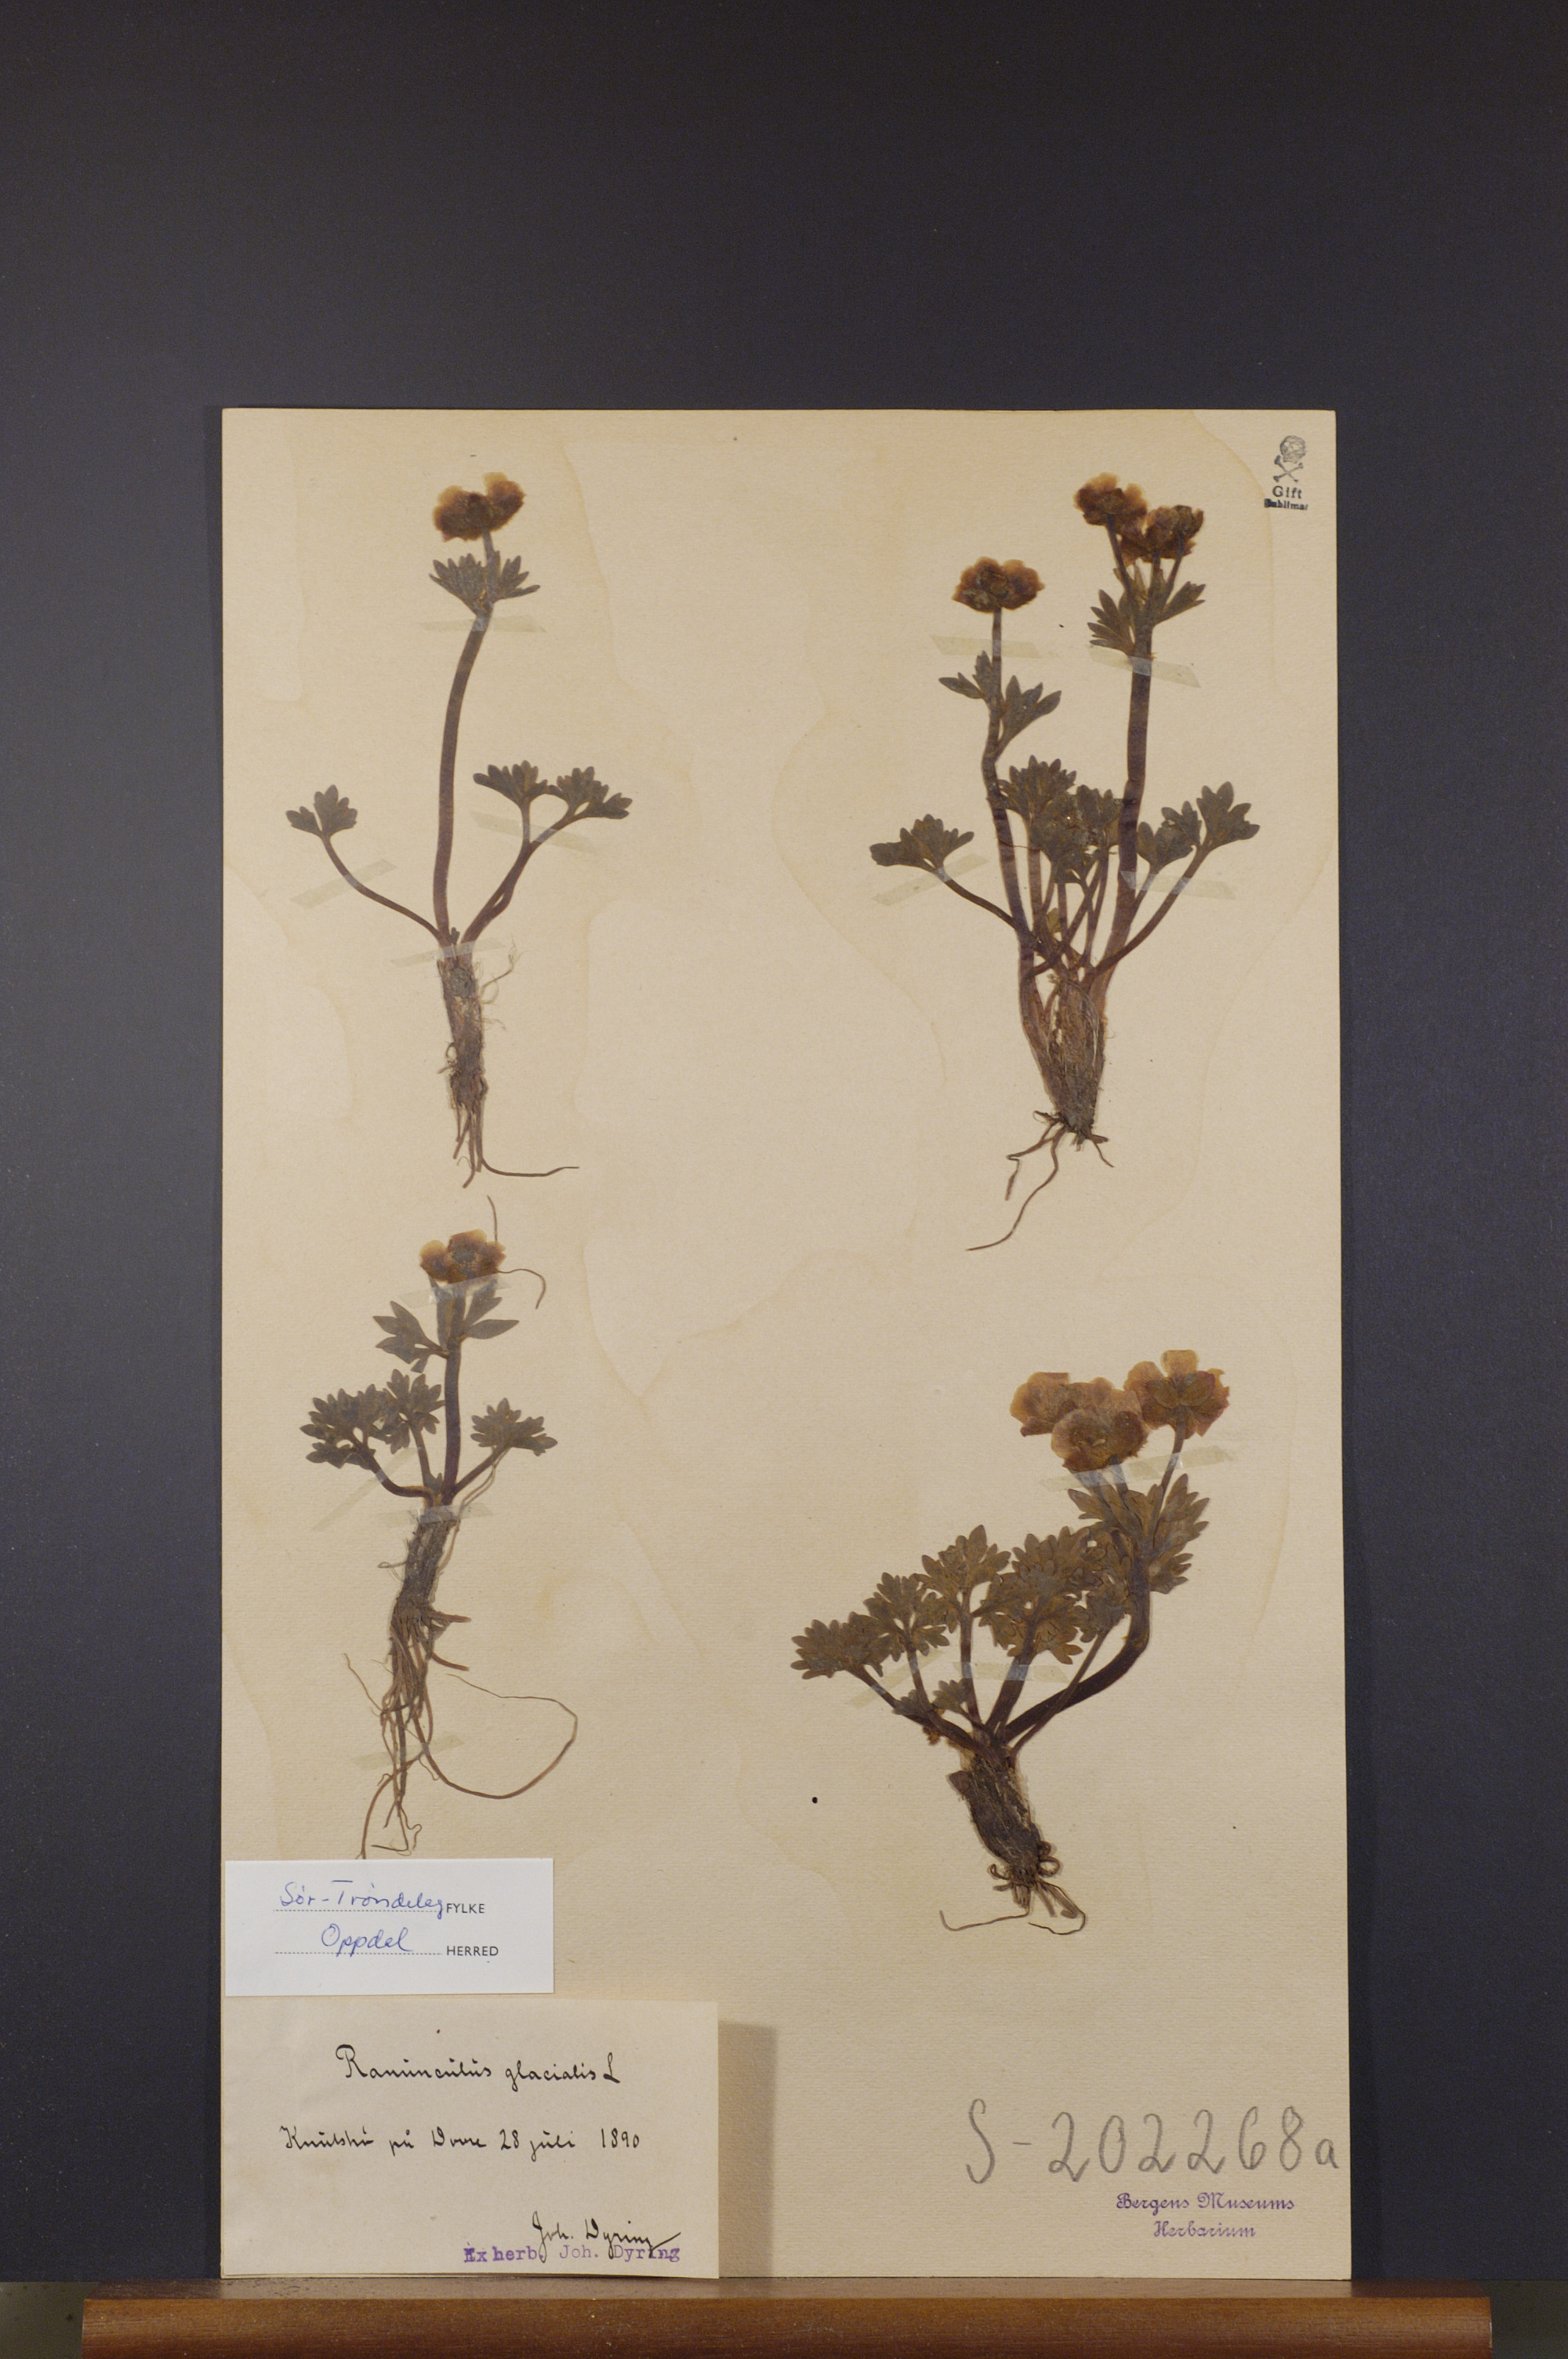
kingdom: Plantae
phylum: Tracheophyta
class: Magnoliopsida
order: Ranunculales
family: Ranunculaceae
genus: Ranunculus
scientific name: Ranunculus glacialis
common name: Glacier buttercup
